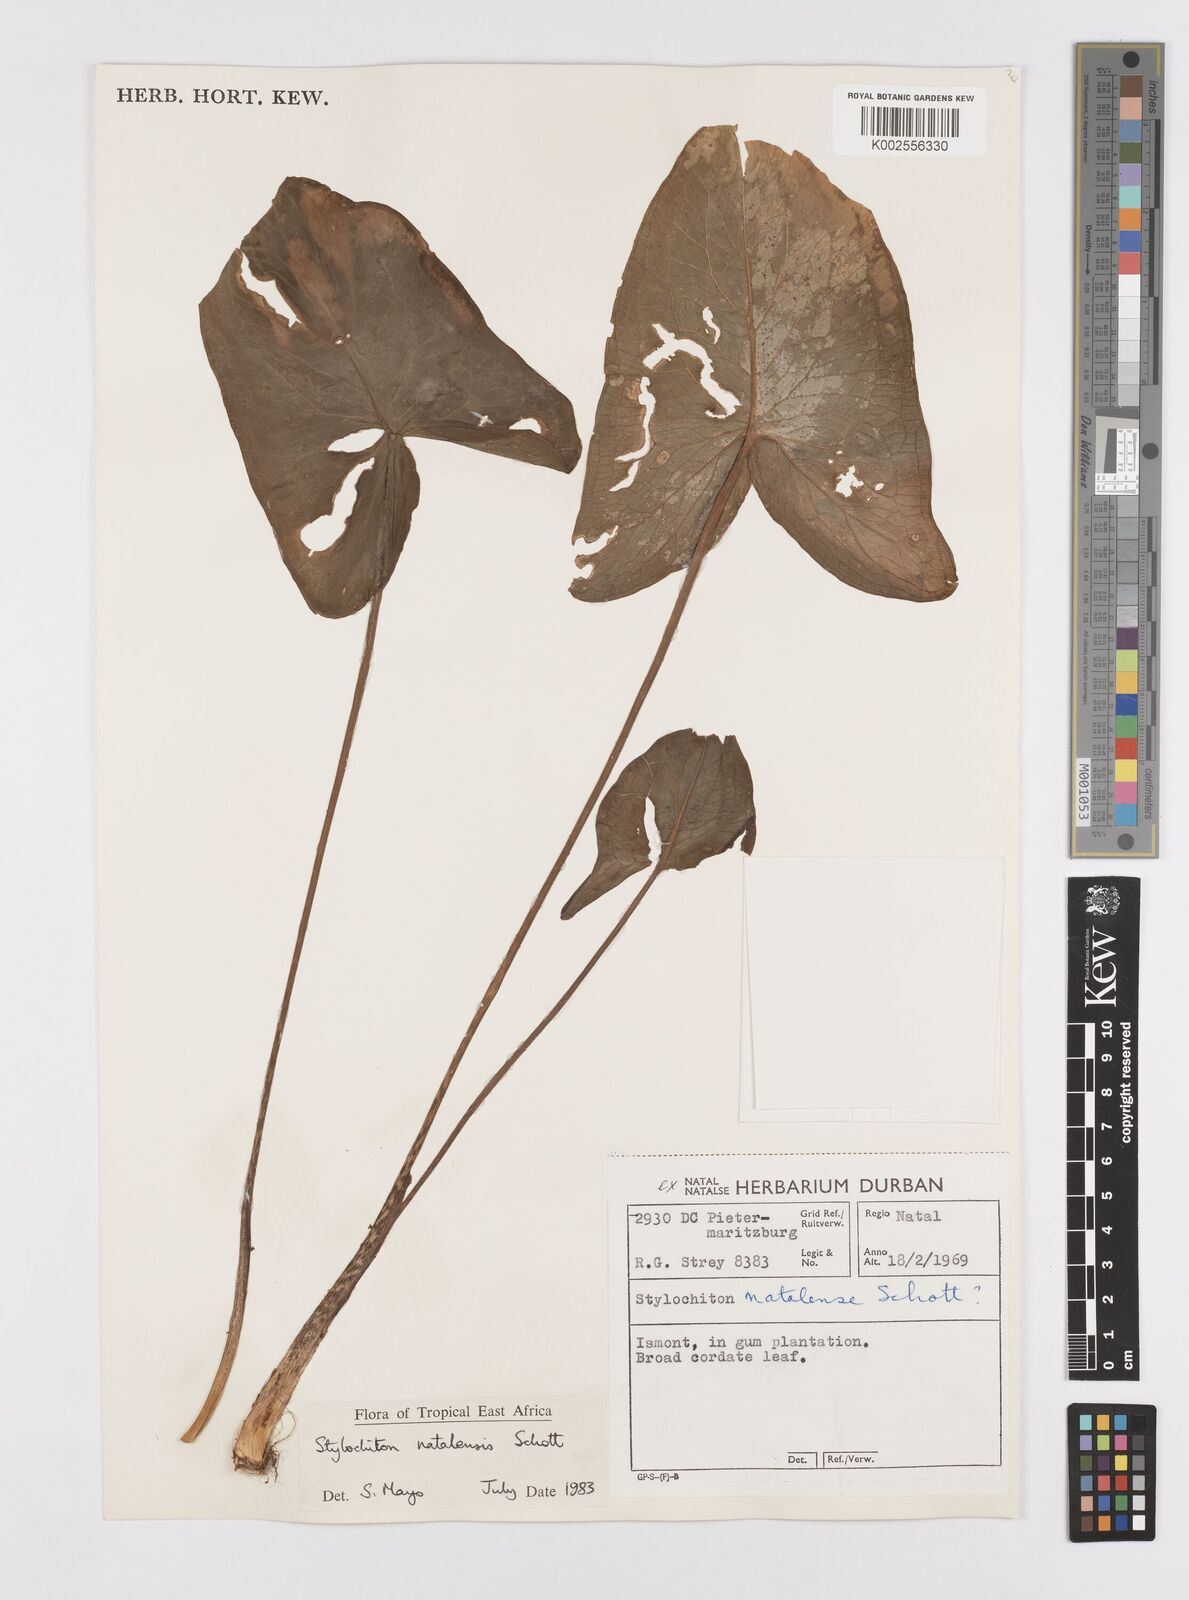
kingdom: Plantae
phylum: Tracheophyta
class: Liliopsida
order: Alismatales
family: Araceae
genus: Stylochaeton
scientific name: Stylochaeton natalense
